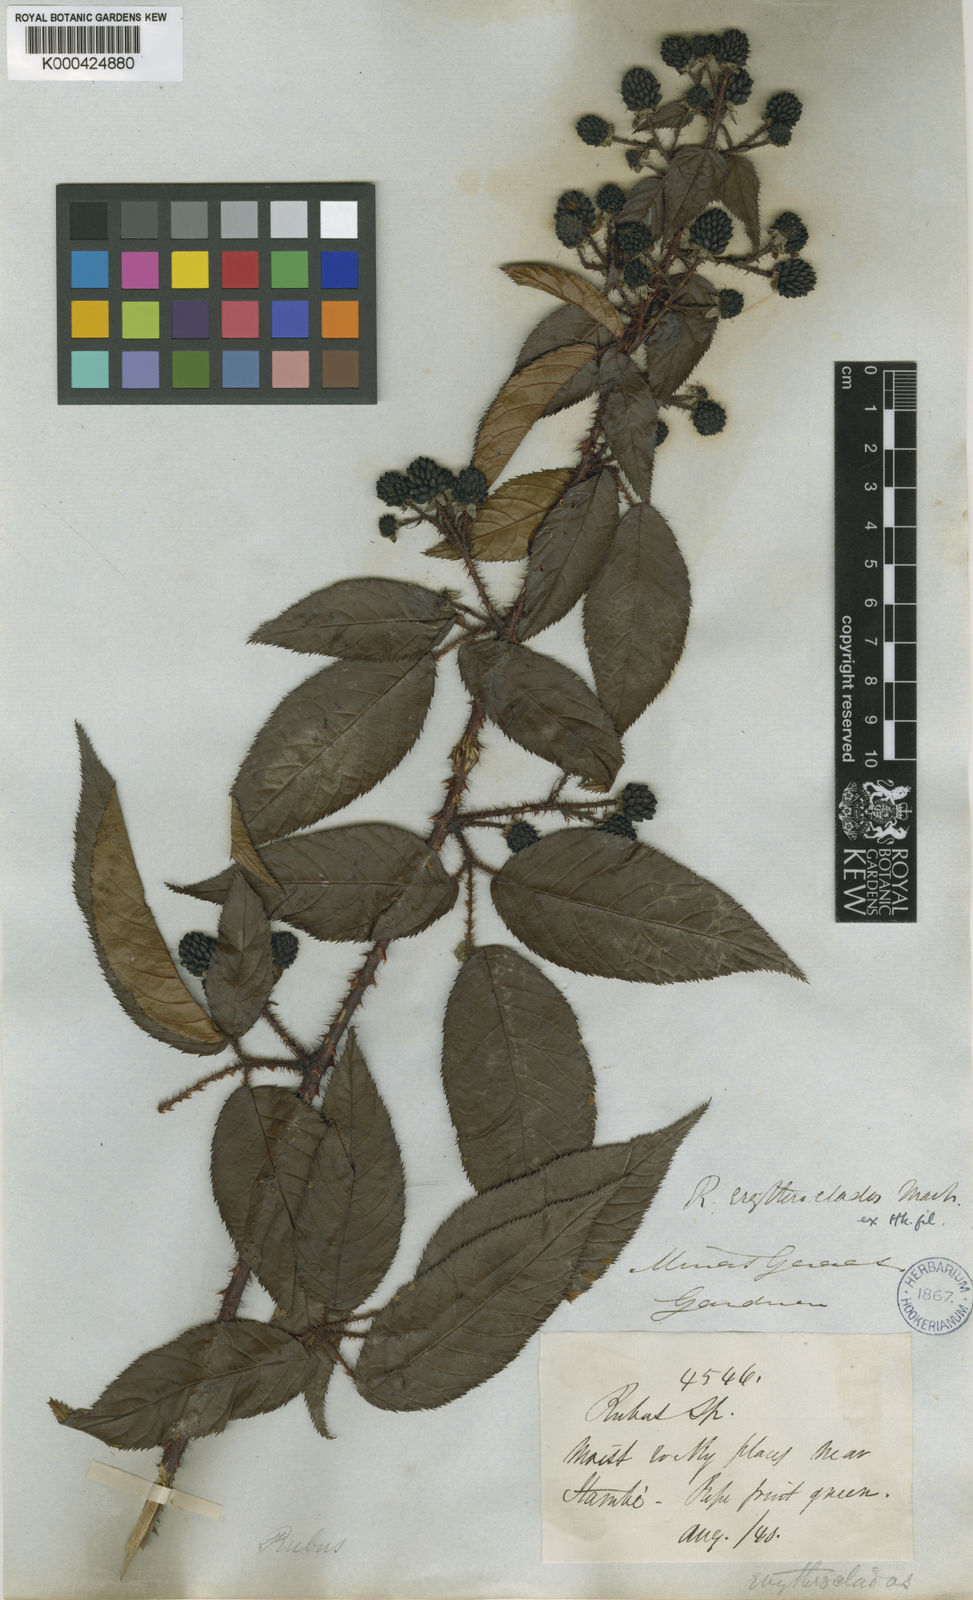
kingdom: Plantae
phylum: Tracheophyta
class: Magnoliopsida
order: Rosales
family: Rosaceae
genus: Rubus
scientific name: Rubus
